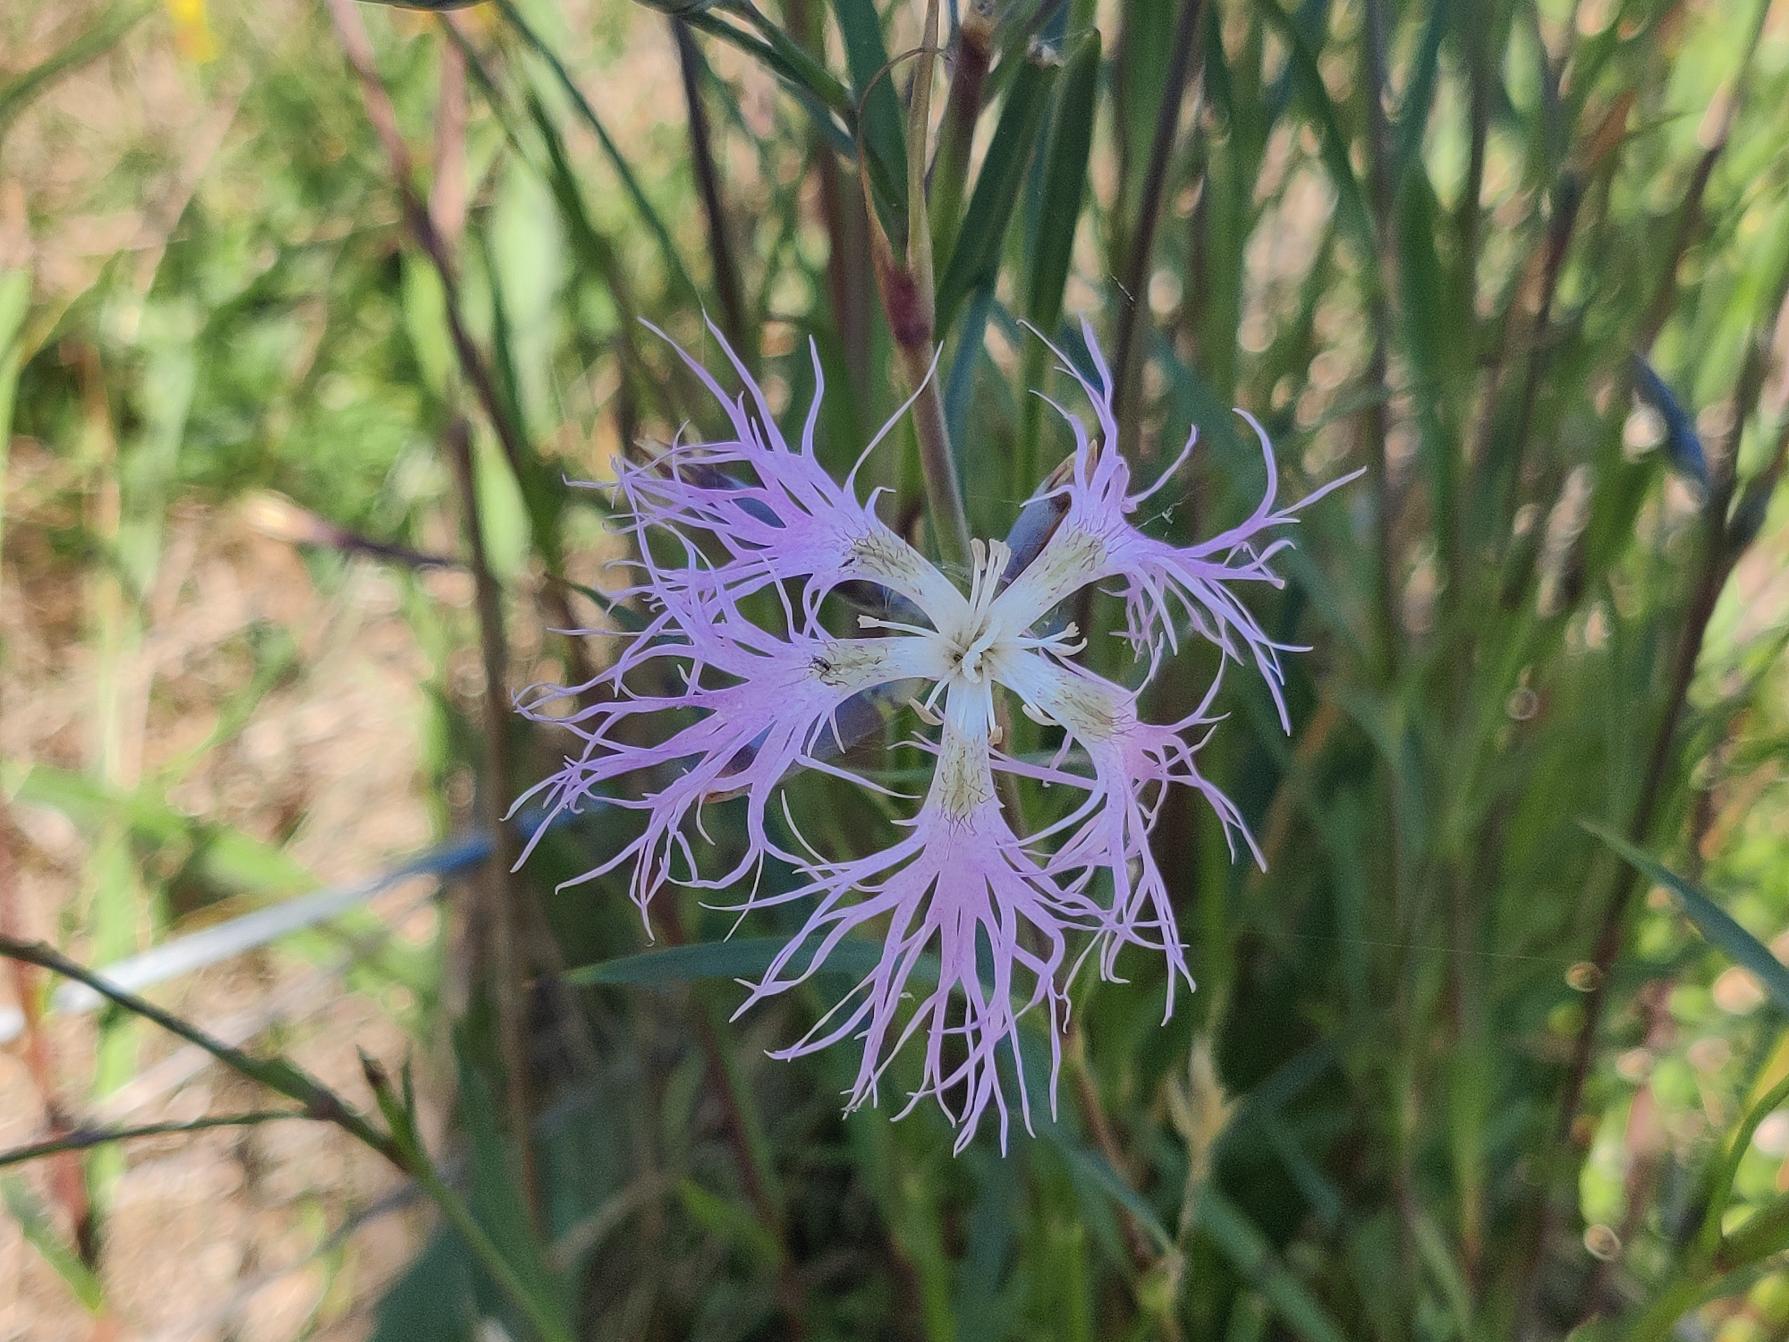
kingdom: Plantae
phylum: Tracheophyta
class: Magnoliopsida
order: Caryophyllales
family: Caryophyllaceae
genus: Dianthus
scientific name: Dianthus superbus
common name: Strand-nellike
